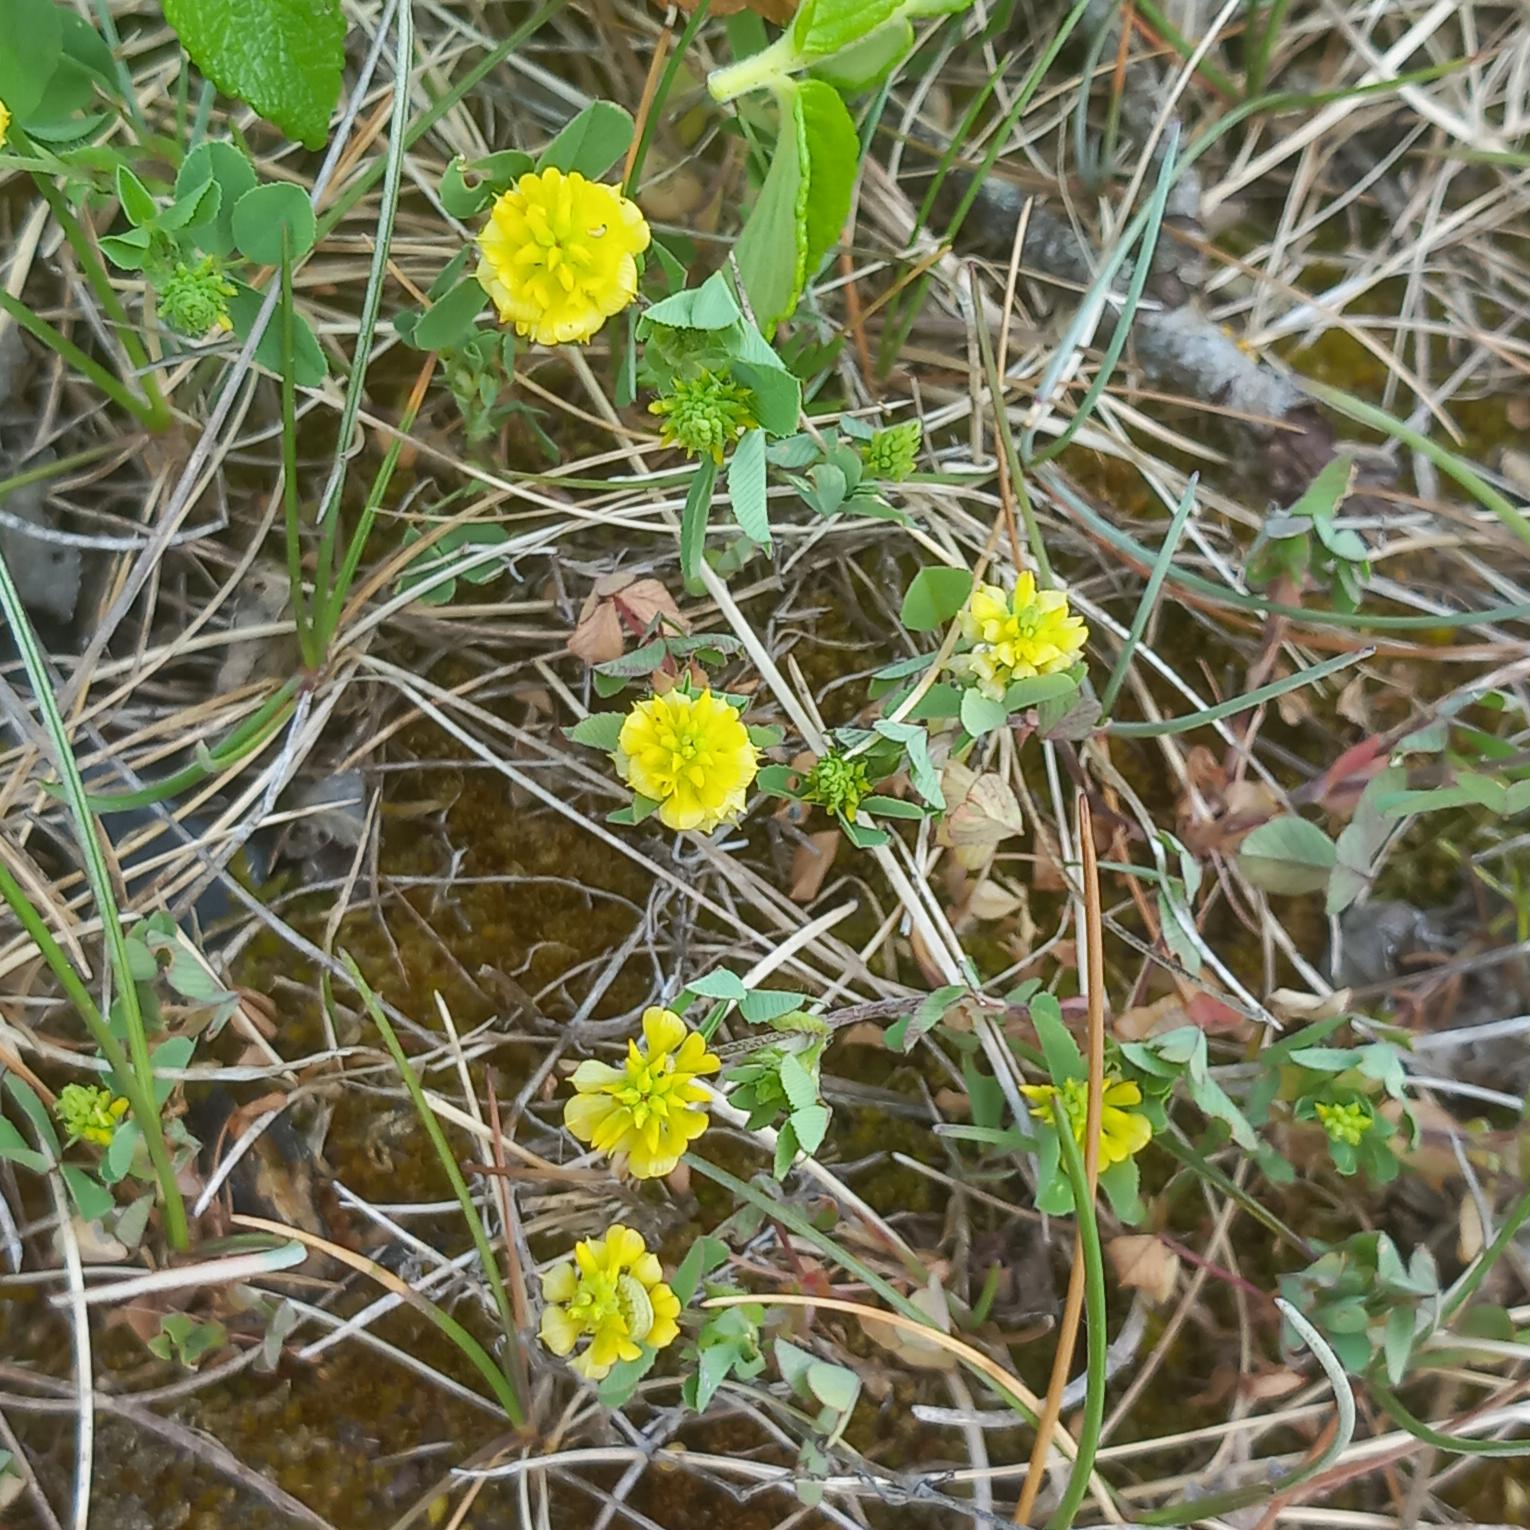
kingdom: Plantae
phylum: Tracheophyta
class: Magnoliopsida
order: Fabales
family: Fabaceae
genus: Trifolium
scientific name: Trifolium campestre
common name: Gul kløver
